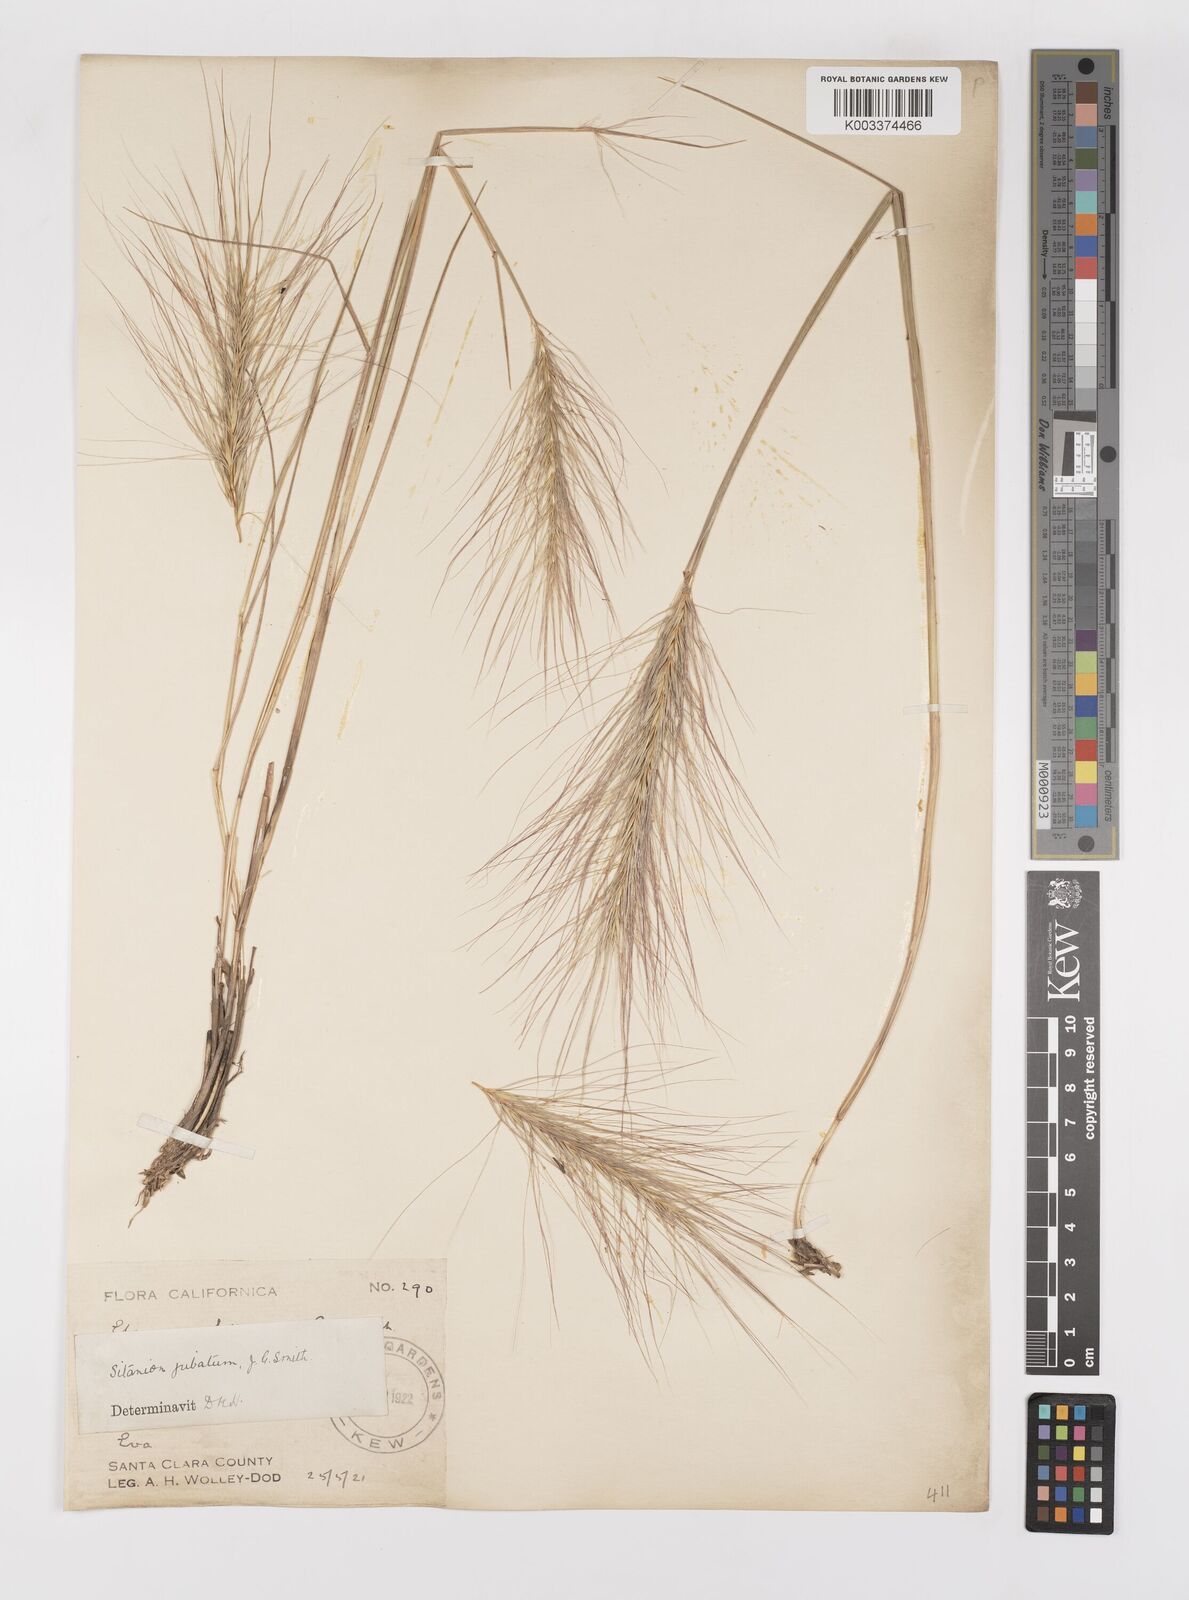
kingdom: Plantae
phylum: Tracheophyta
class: Liliopsida
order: Poales
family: Poaceae
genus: Elymus
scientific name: Elymus multisetus
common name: Big squirreltail
